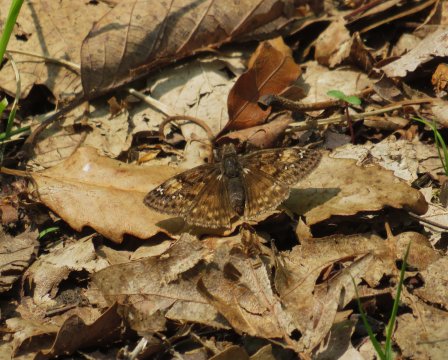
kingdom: Animalia
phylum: Arthropoda
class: Insecta
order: Lepidoptera
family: Hesperiidae
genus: Gesta
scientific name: Gesta
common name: Juvenal's Duskywing
